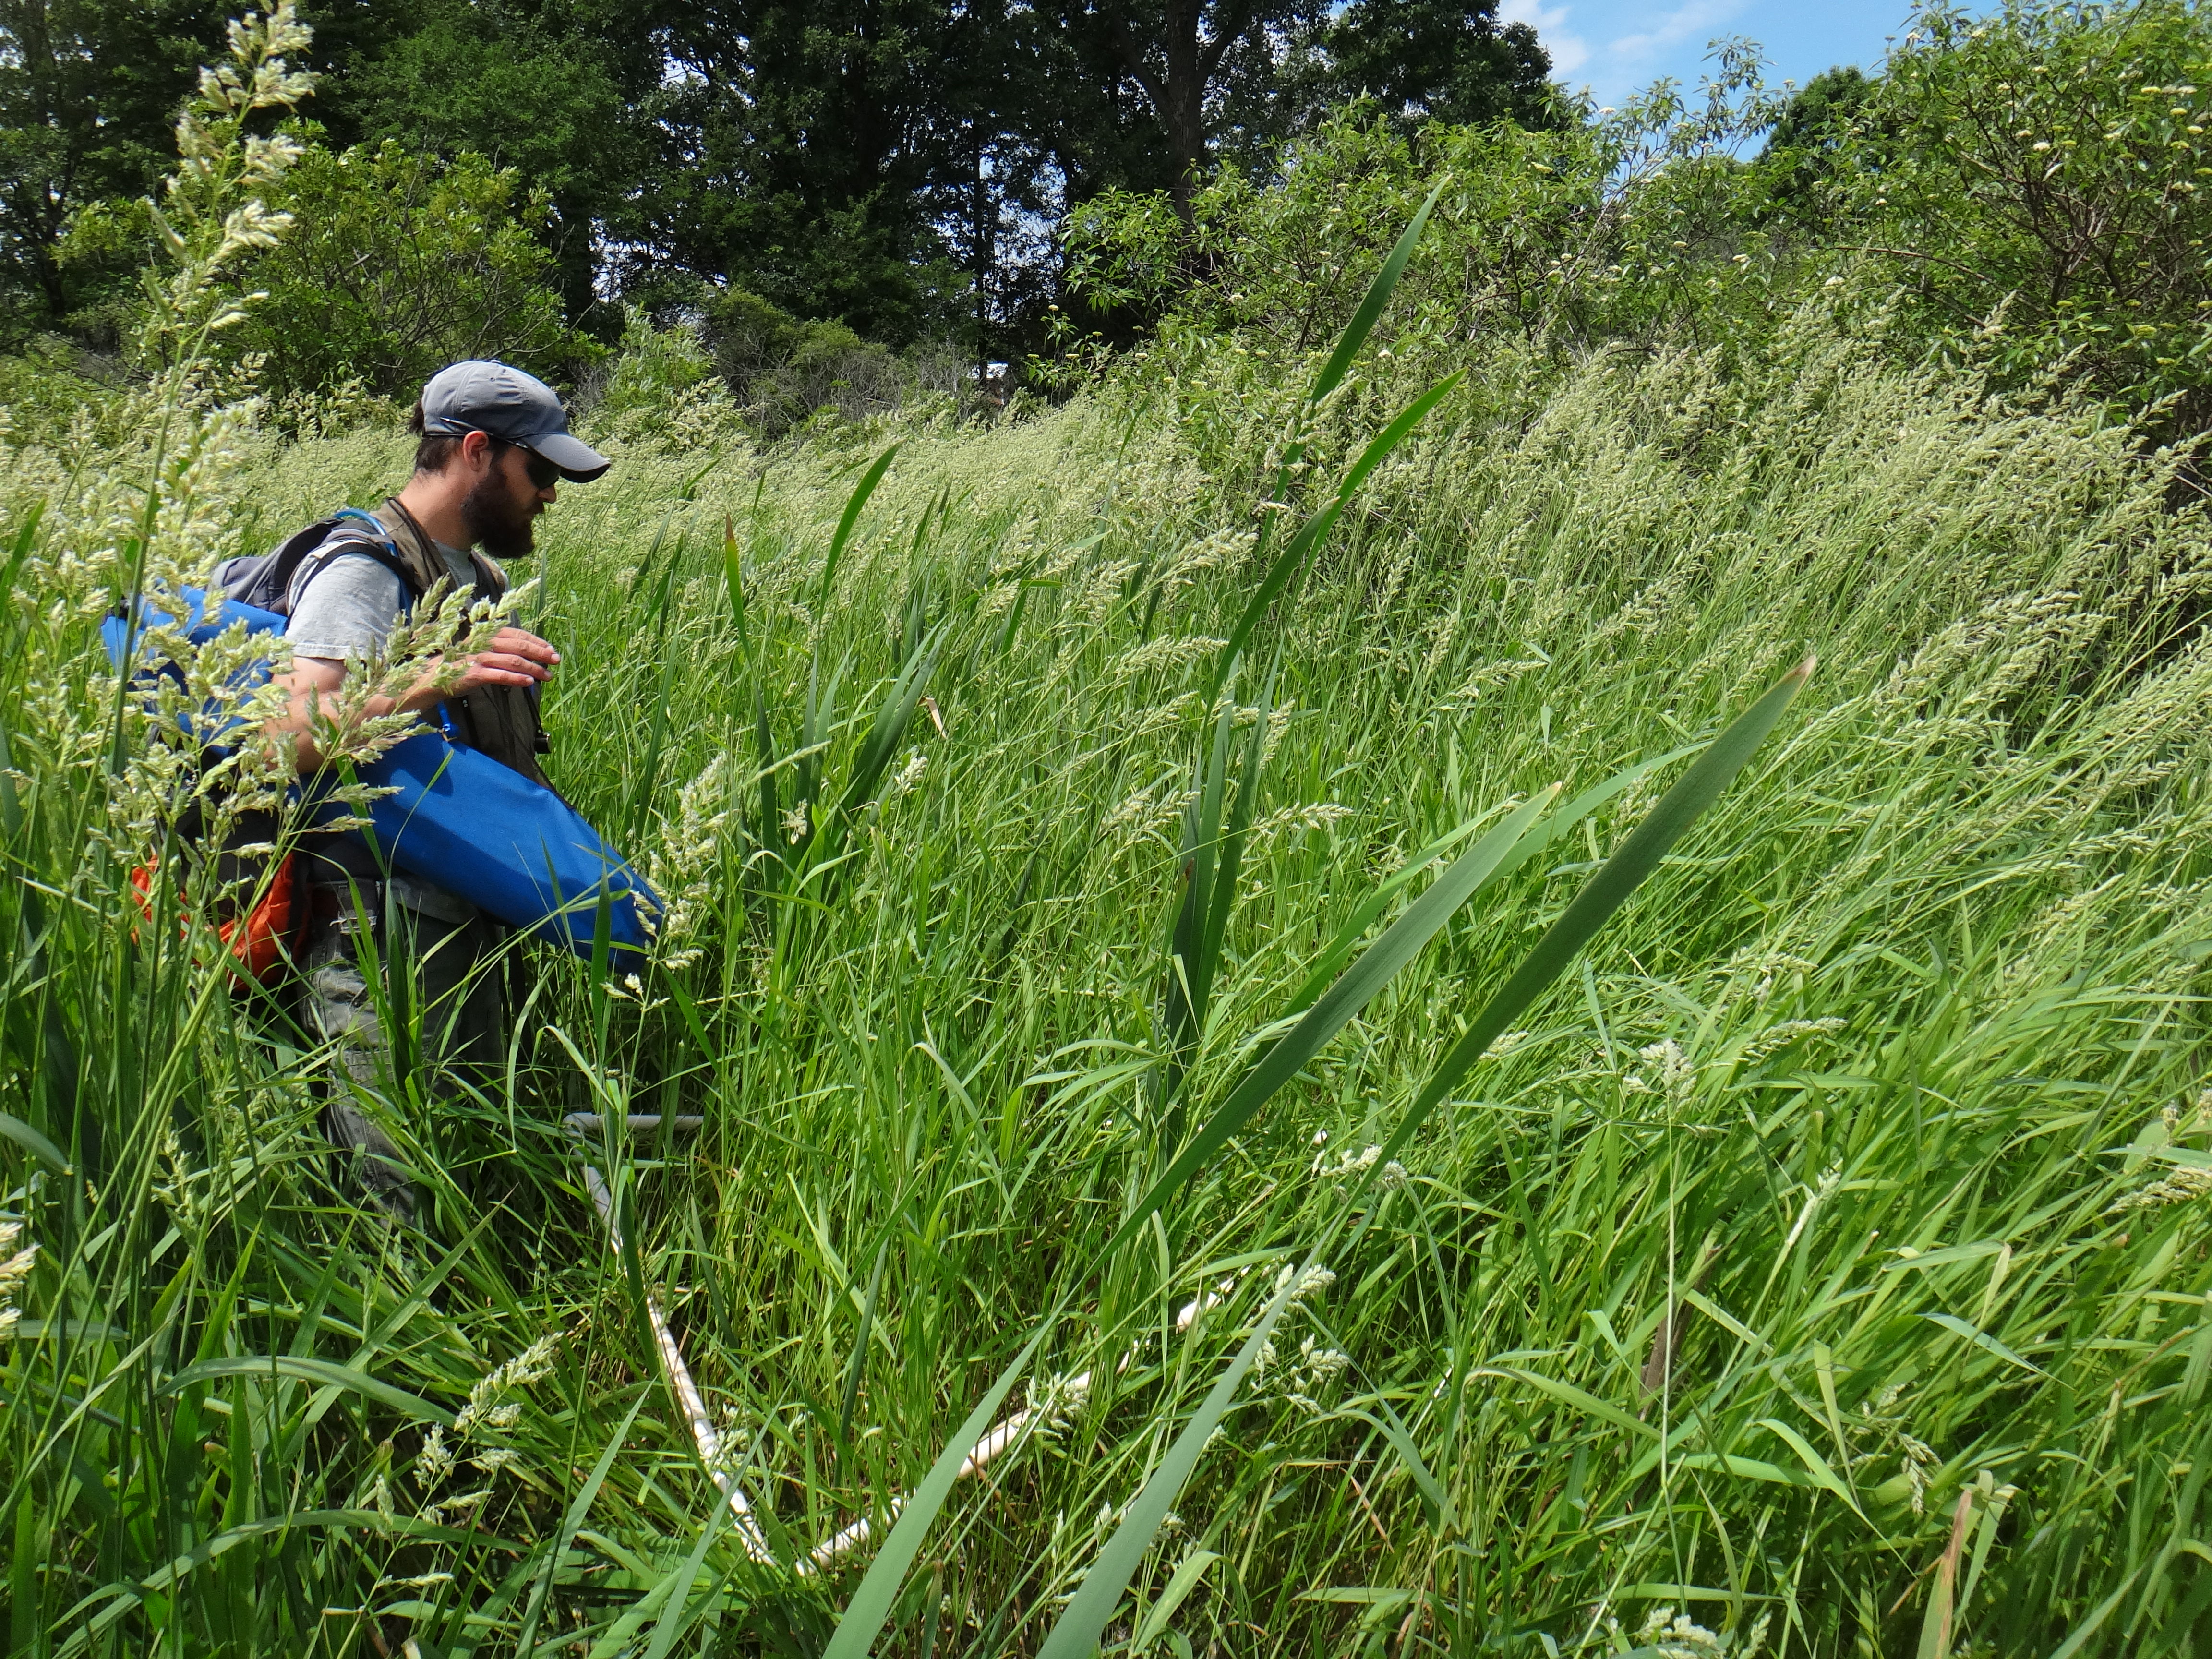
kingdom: Plantae
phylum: Tracheophyta
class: Liliopsida
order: Poales
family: Poaceae
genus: Glyceria
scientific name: Glyceria striata
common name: Fowl manna grass
